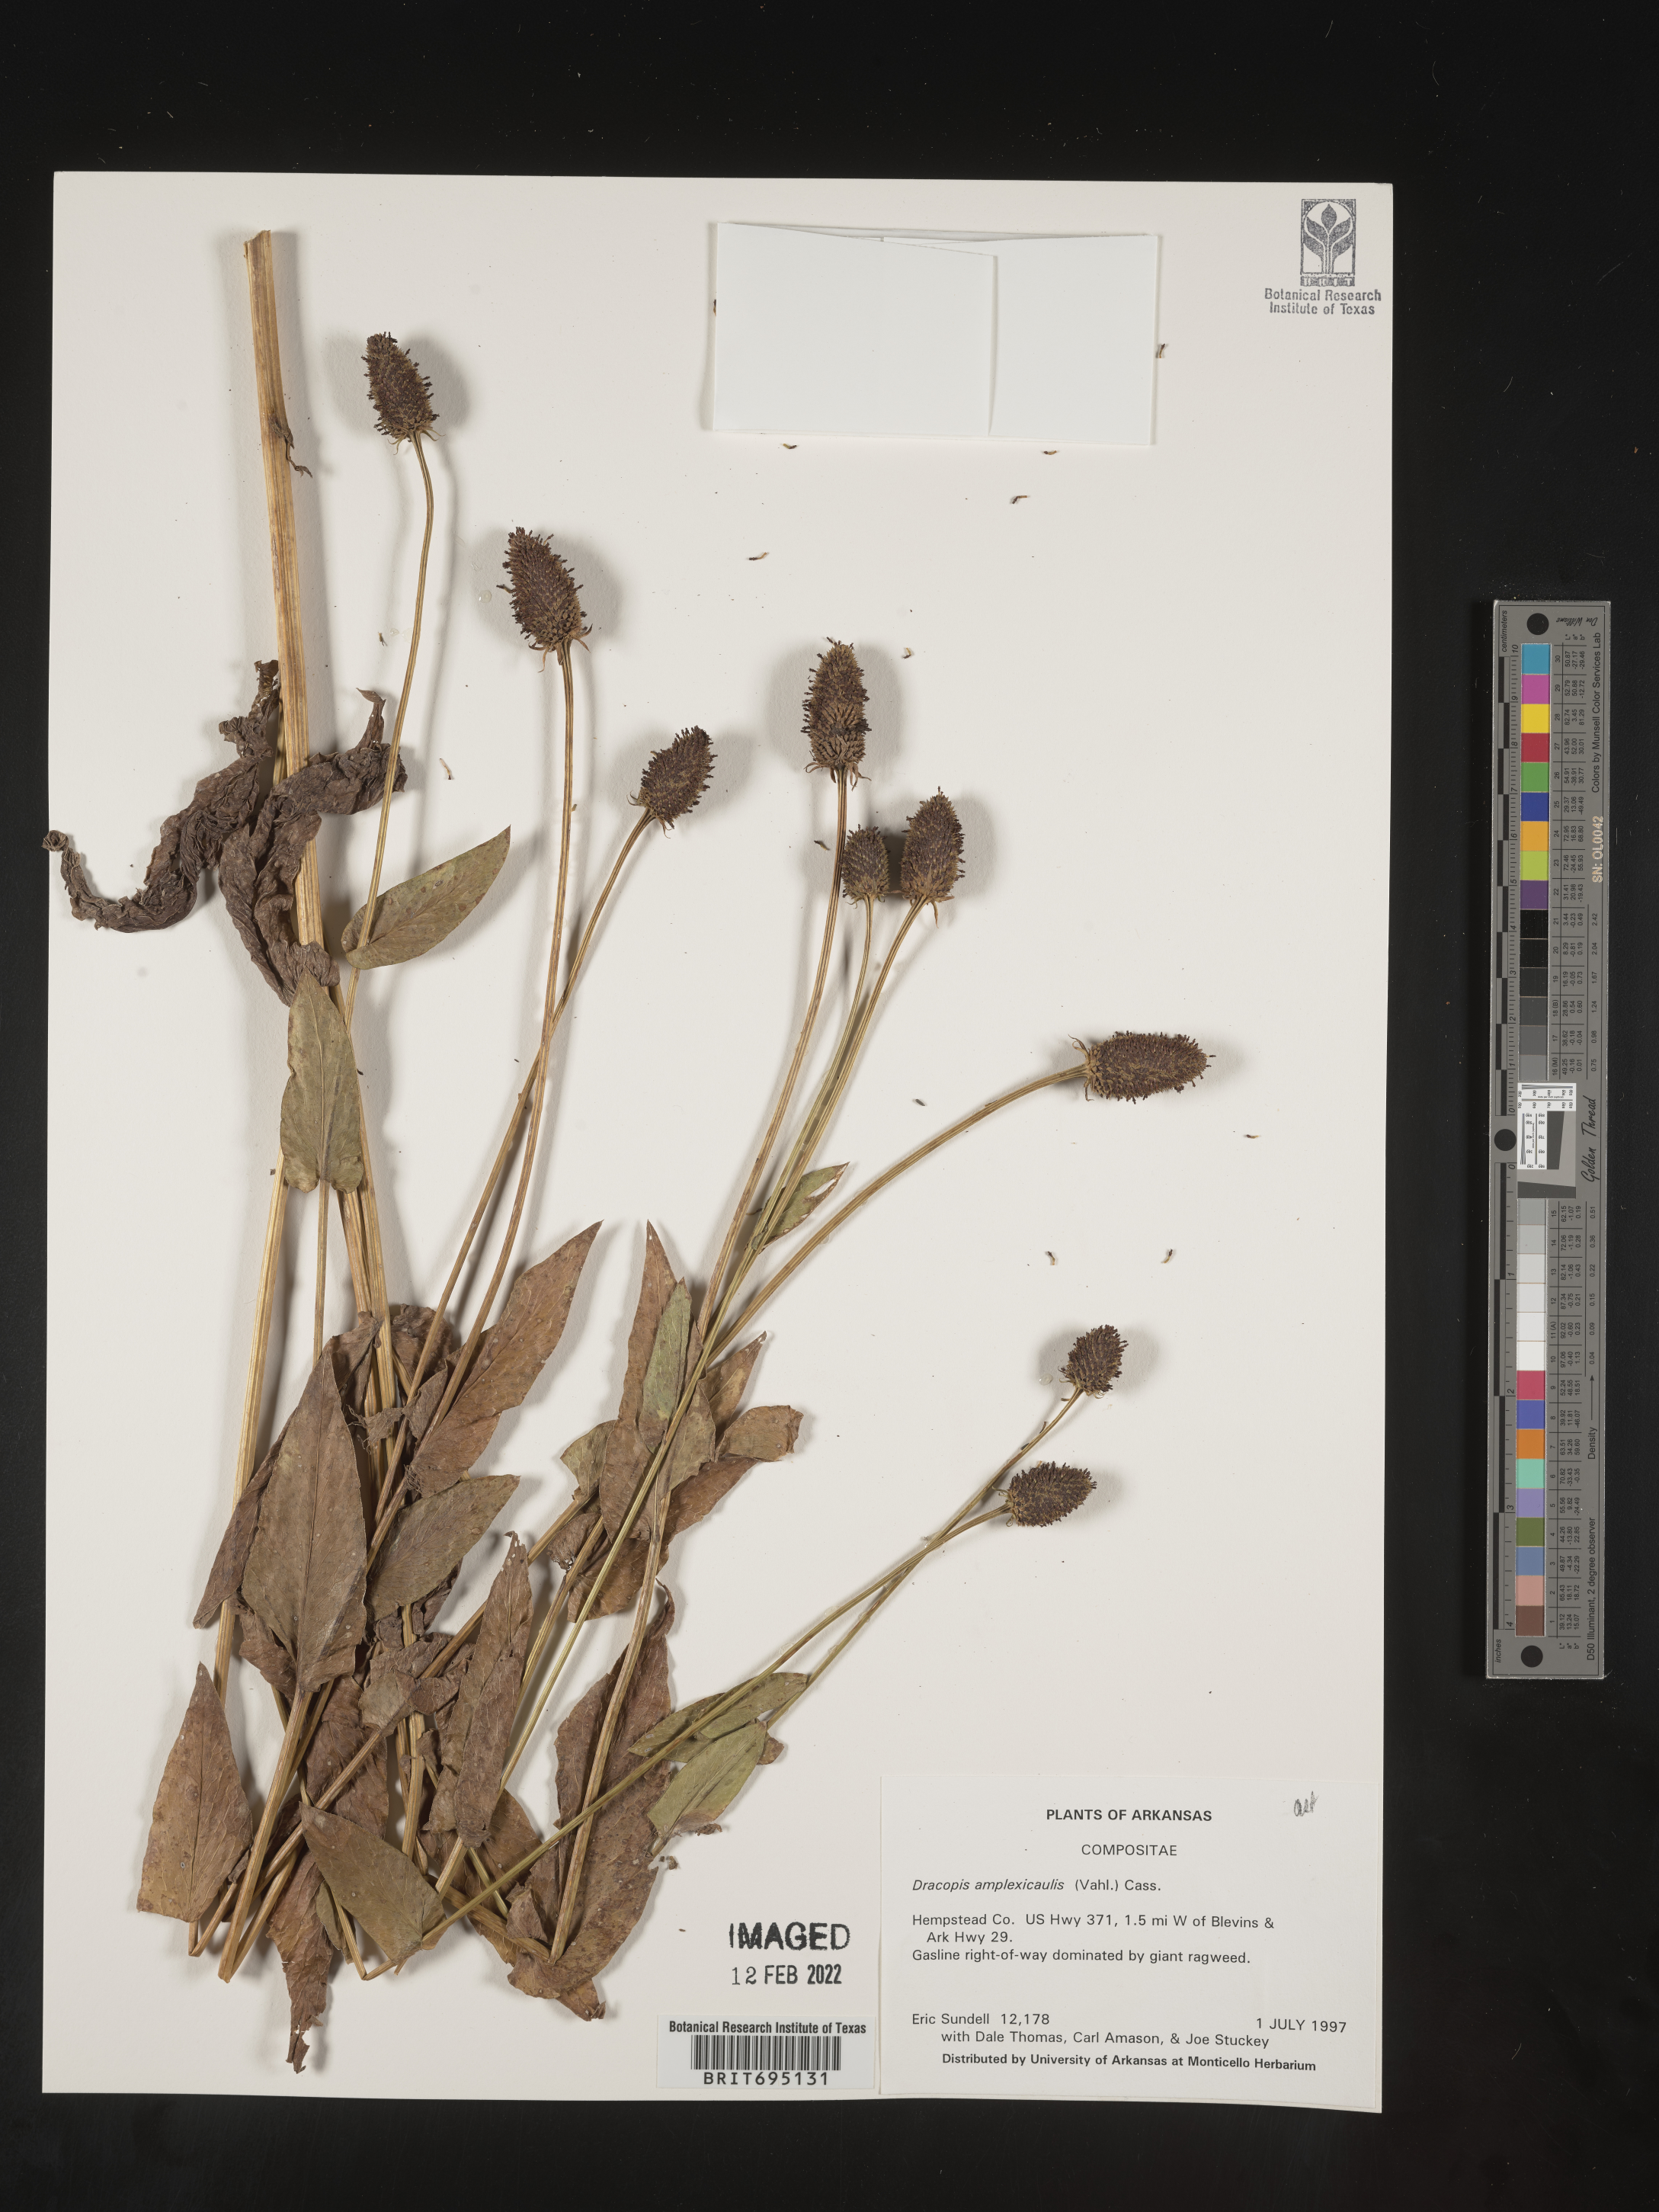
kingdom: Plantae
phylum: Tracheophyta
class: Magnoliopsida
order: Asterales
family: Asteraceae
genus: Rudbeckia
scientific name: Rudbeckia amplexicaulis
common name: Clasping-leaf coneflower
